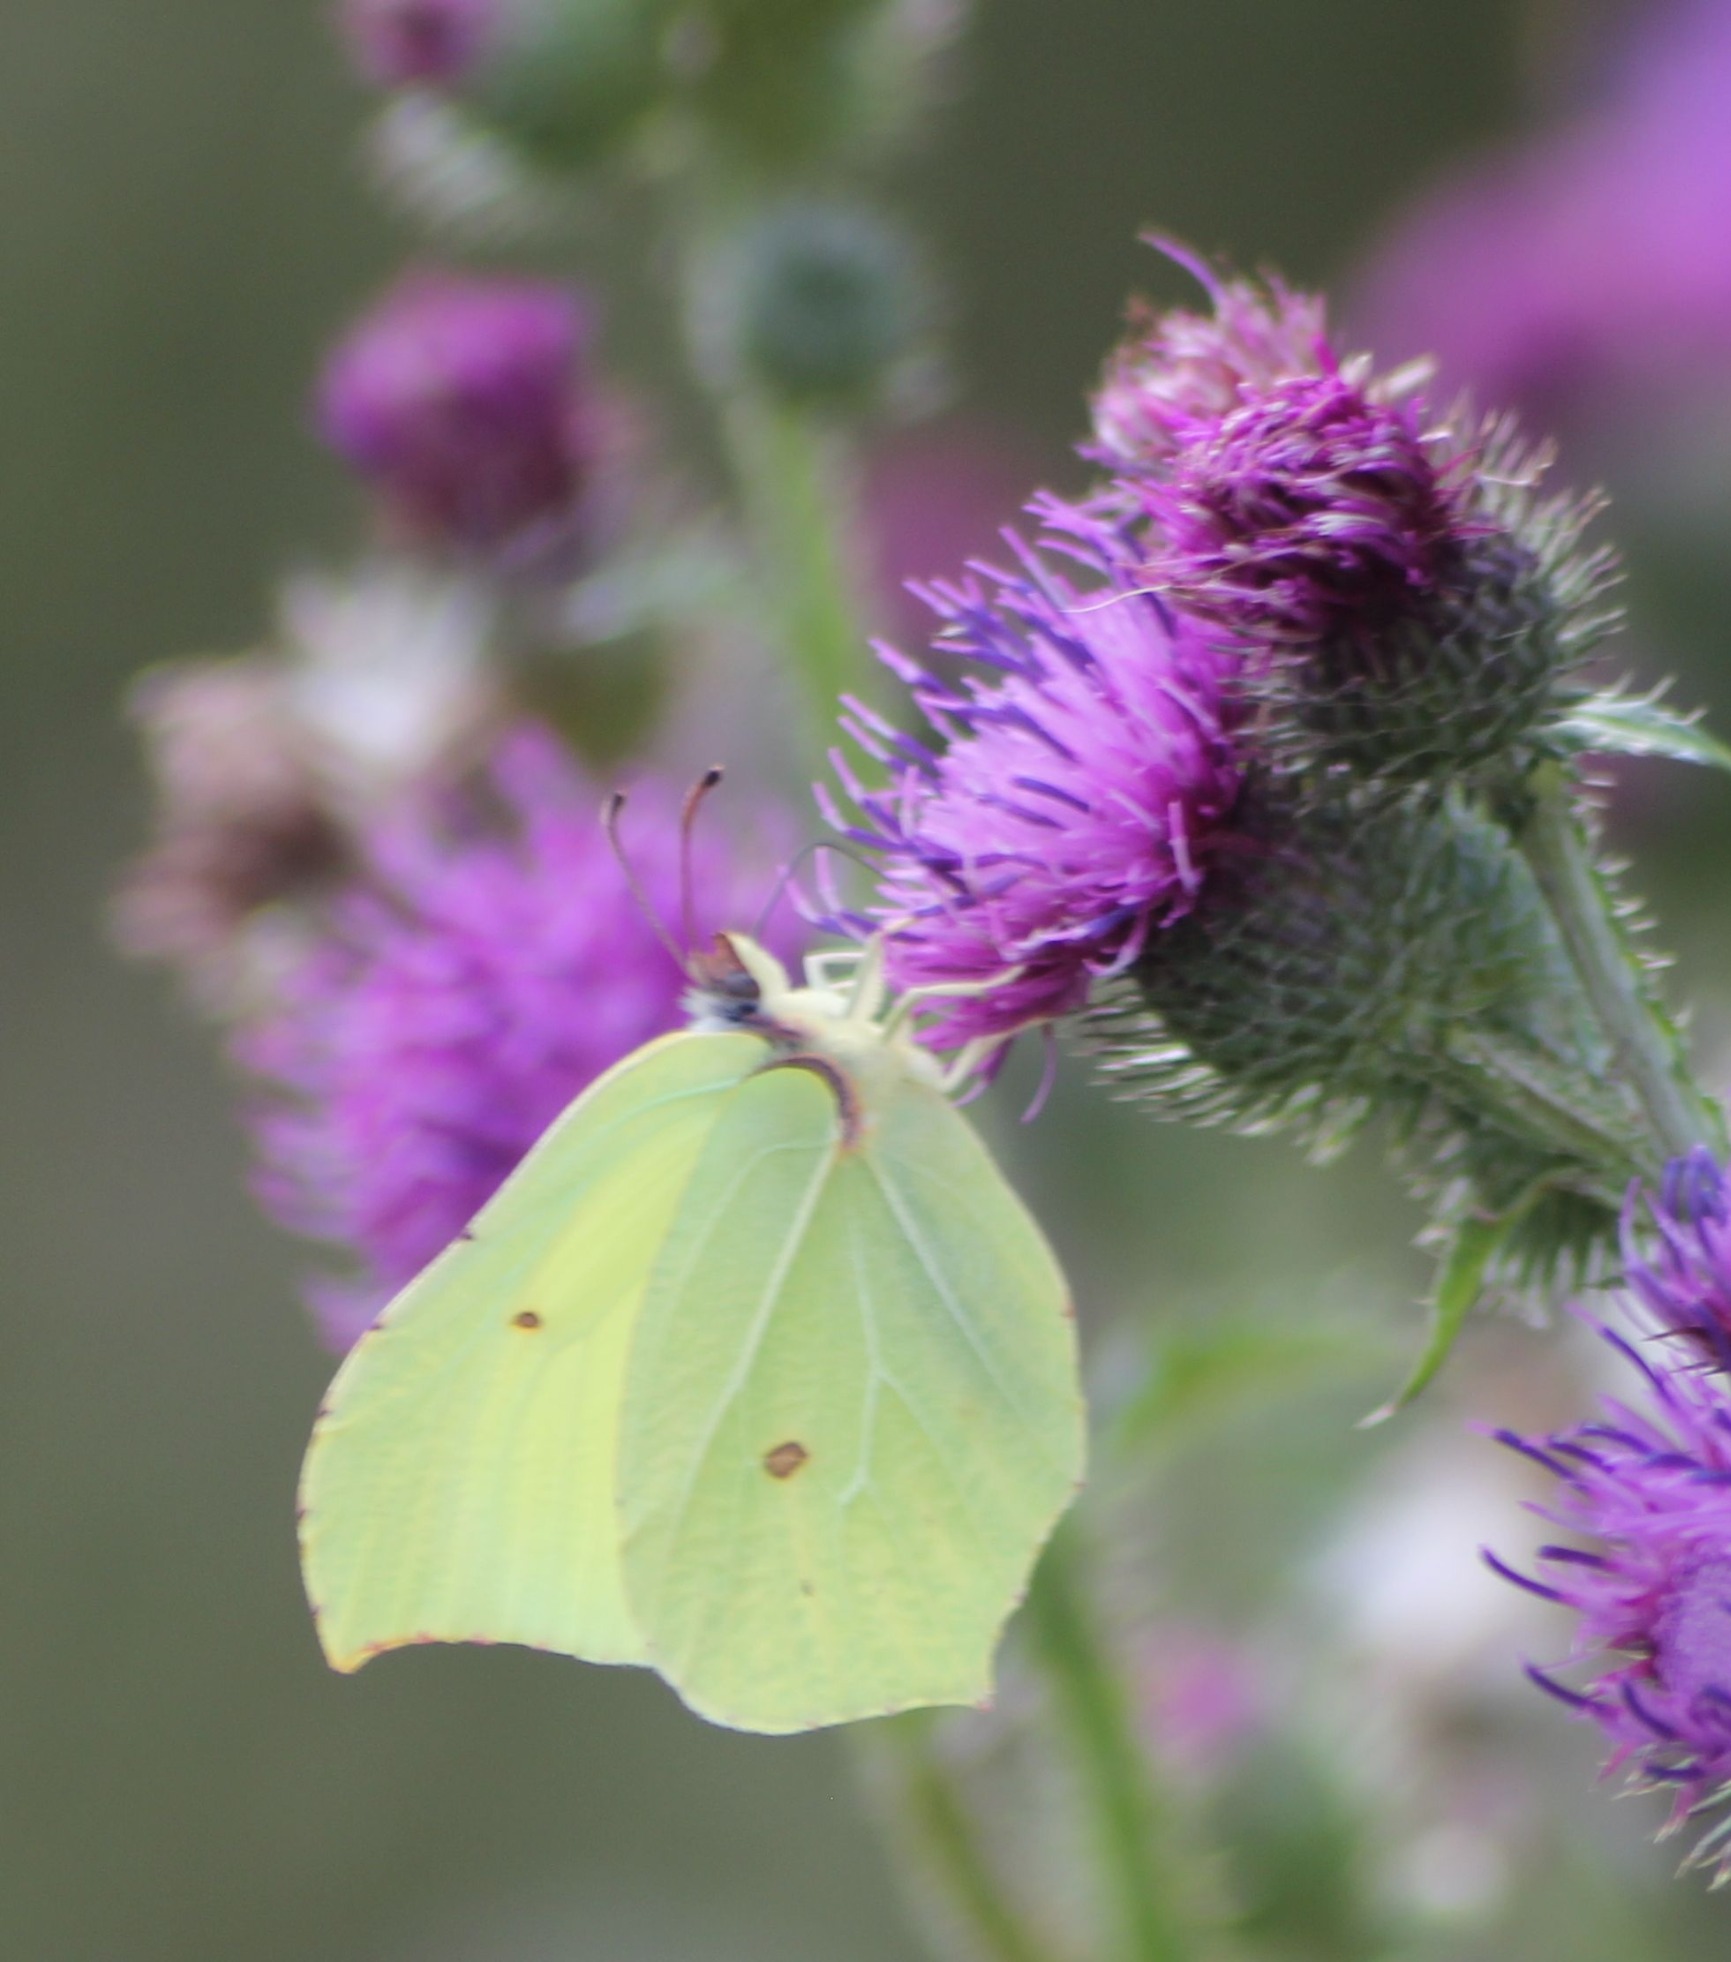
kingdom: Animalia
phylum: Arthropoda
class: Insecta
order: Lepidoptera
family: Pieridae
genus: Gonepteryx
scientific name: Gonepteryx rhamni
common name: Citronsommerfugl
